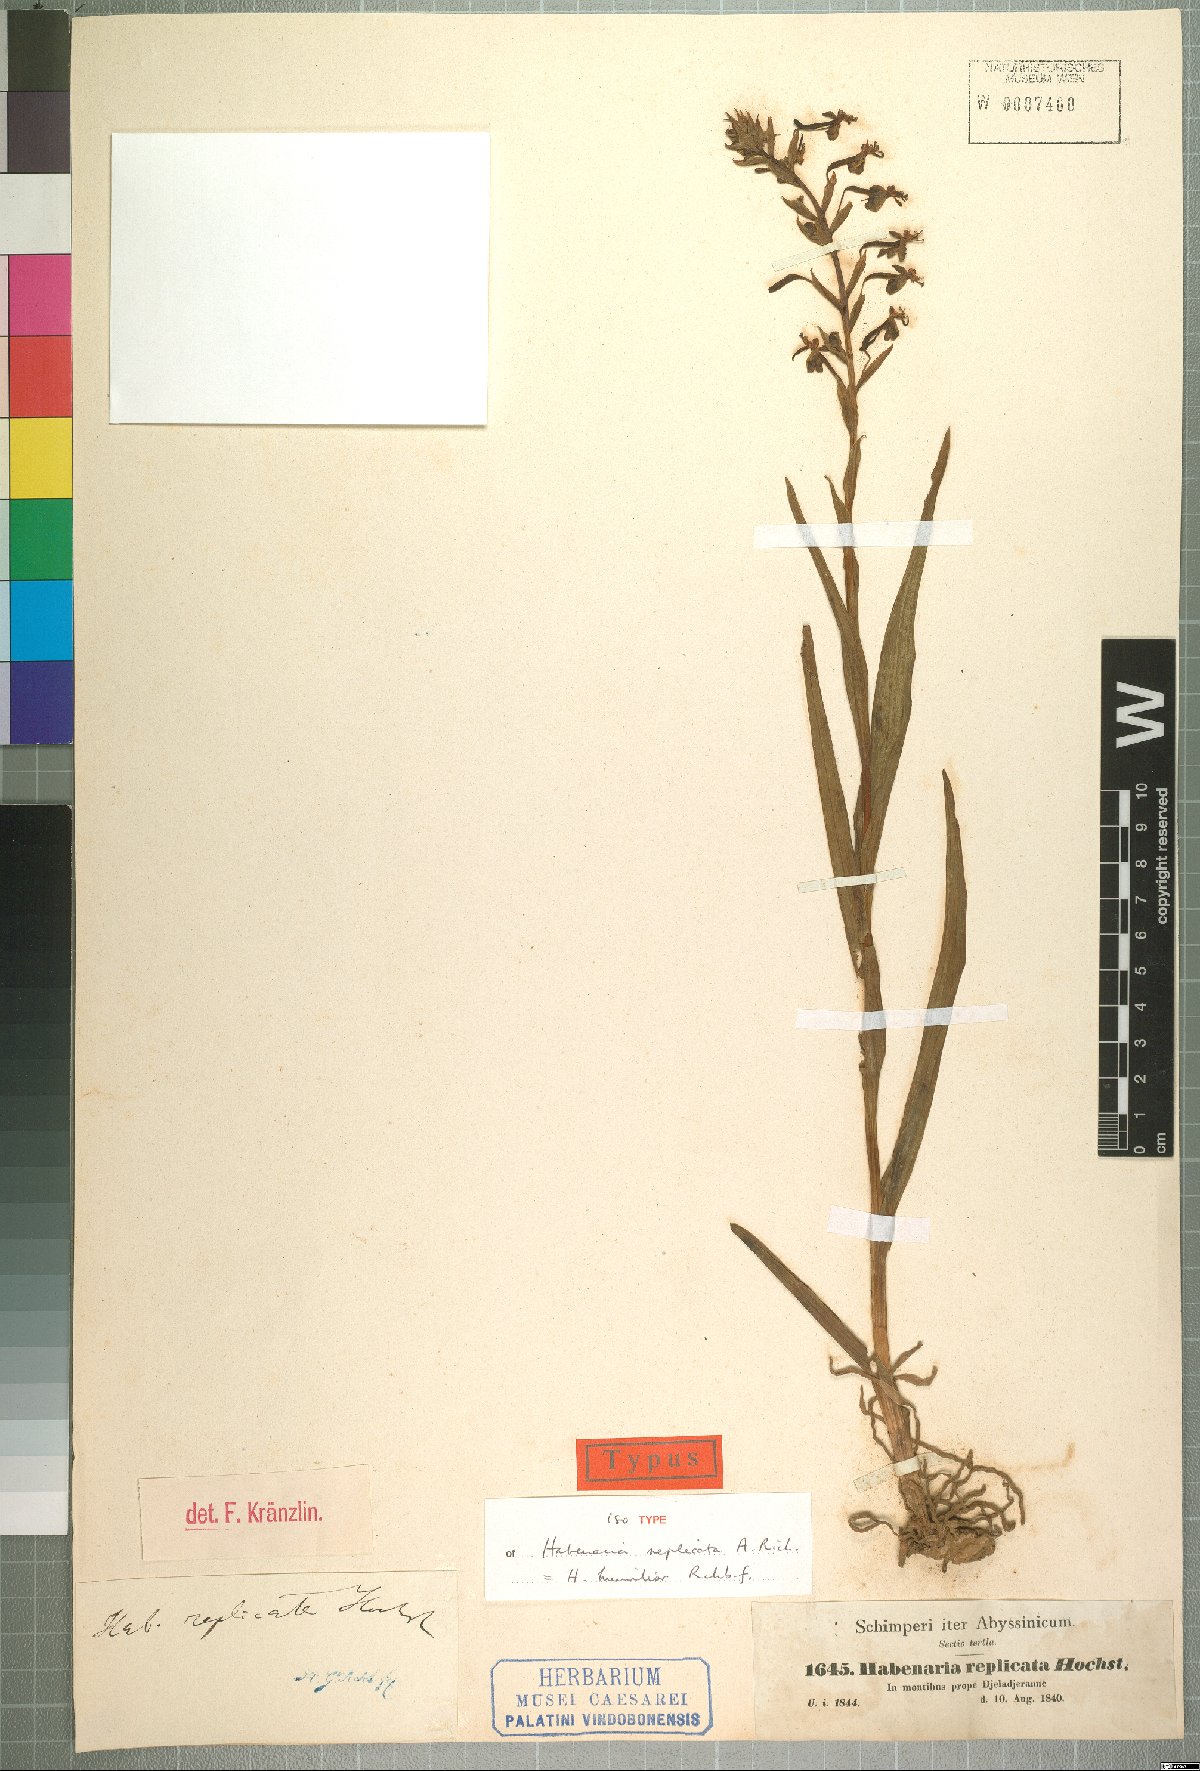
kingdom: Plantae
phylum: Tracheophyta
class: Liliopsida
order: Asparagales
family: Orchidaceae
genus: Platanthera
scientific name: Platanthera replicata
